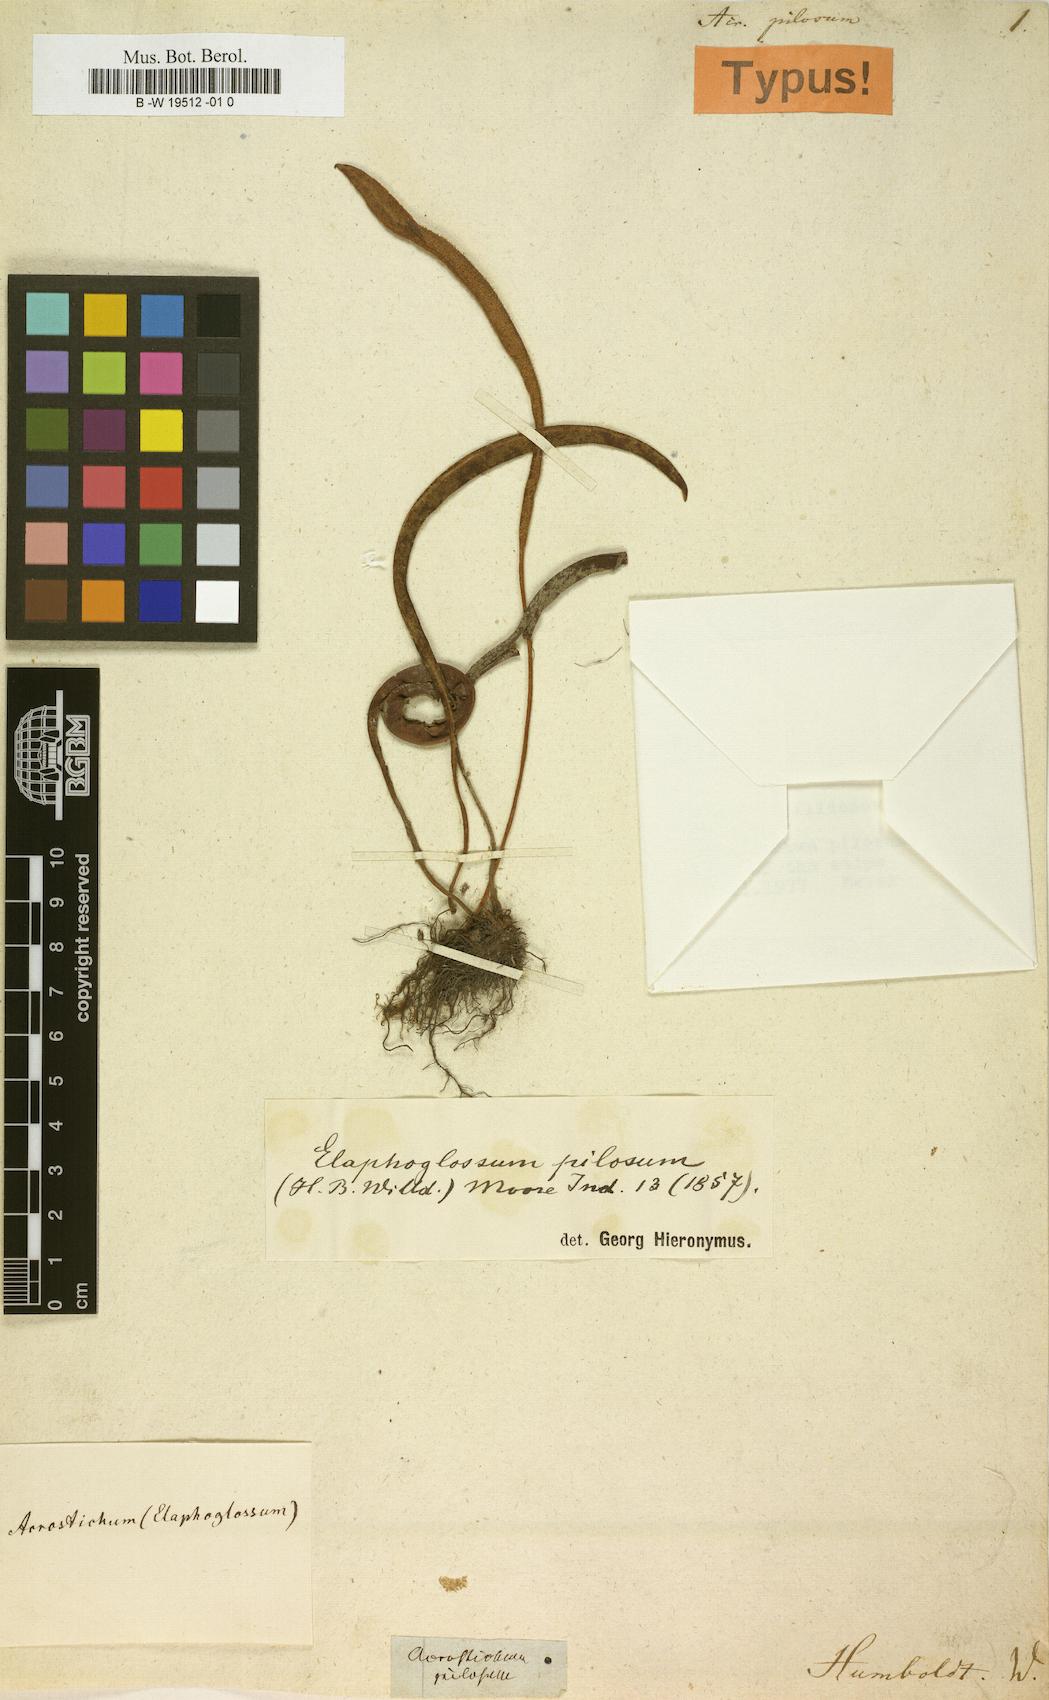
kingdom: Plantae
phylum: Tracheophyta
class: Polypodiopsida
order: Polypodiales
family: Dryopteridaceae
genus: Elaphoglossum
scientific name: Elaphoglossum tenuiculum
